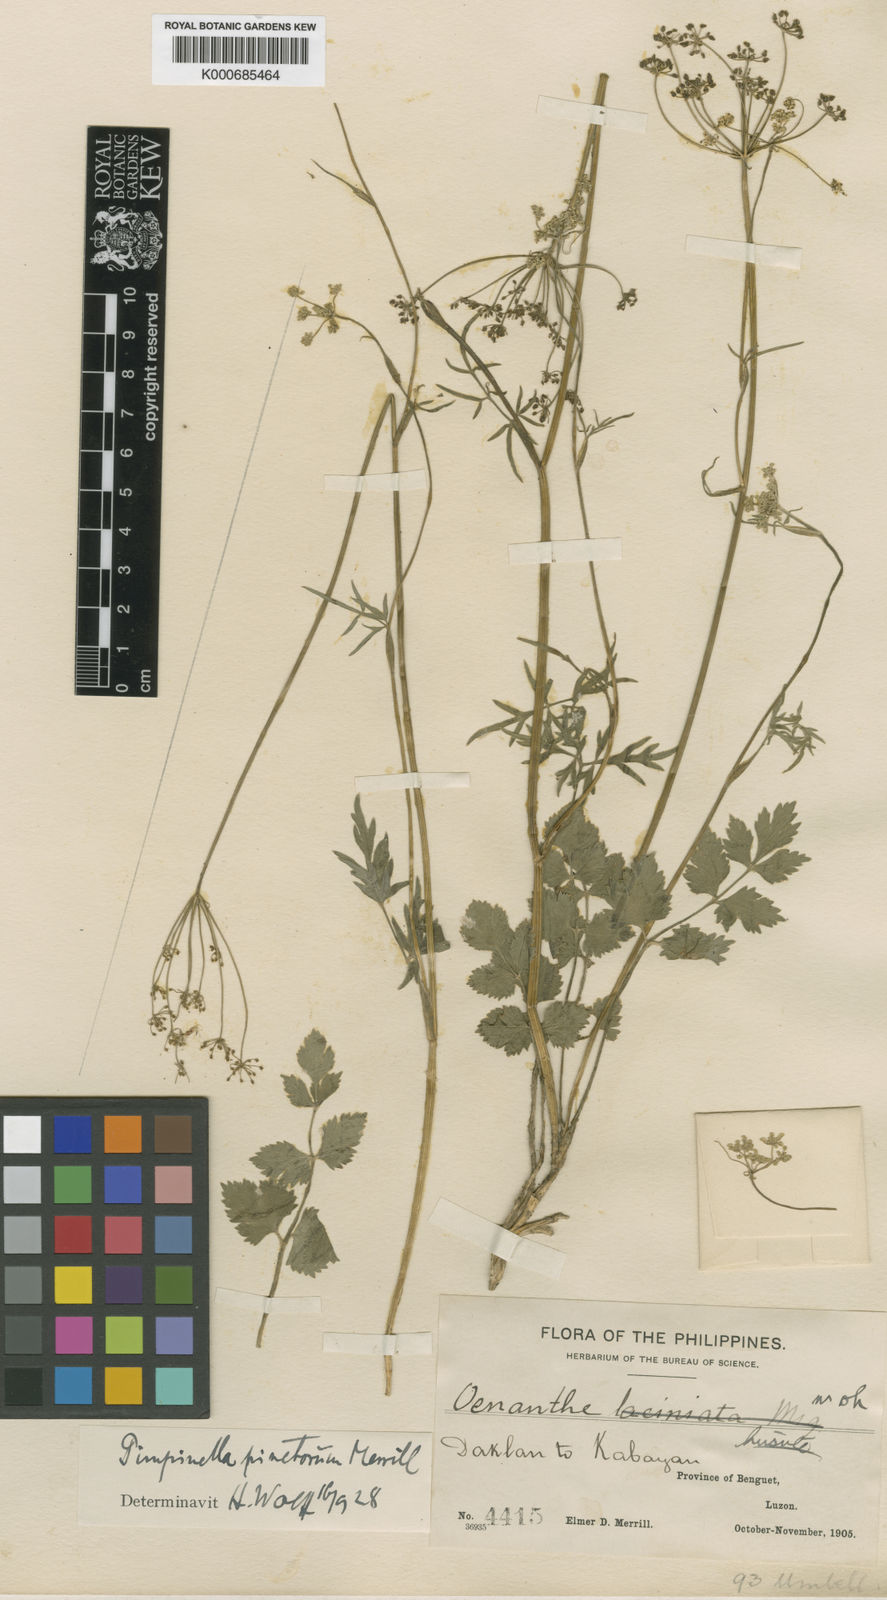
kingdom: Plantae
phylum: Tracheophyta
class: Magnoliopsida
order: Apiales
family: Apiaceae
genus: Pimpinella
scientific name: Pimpinella
